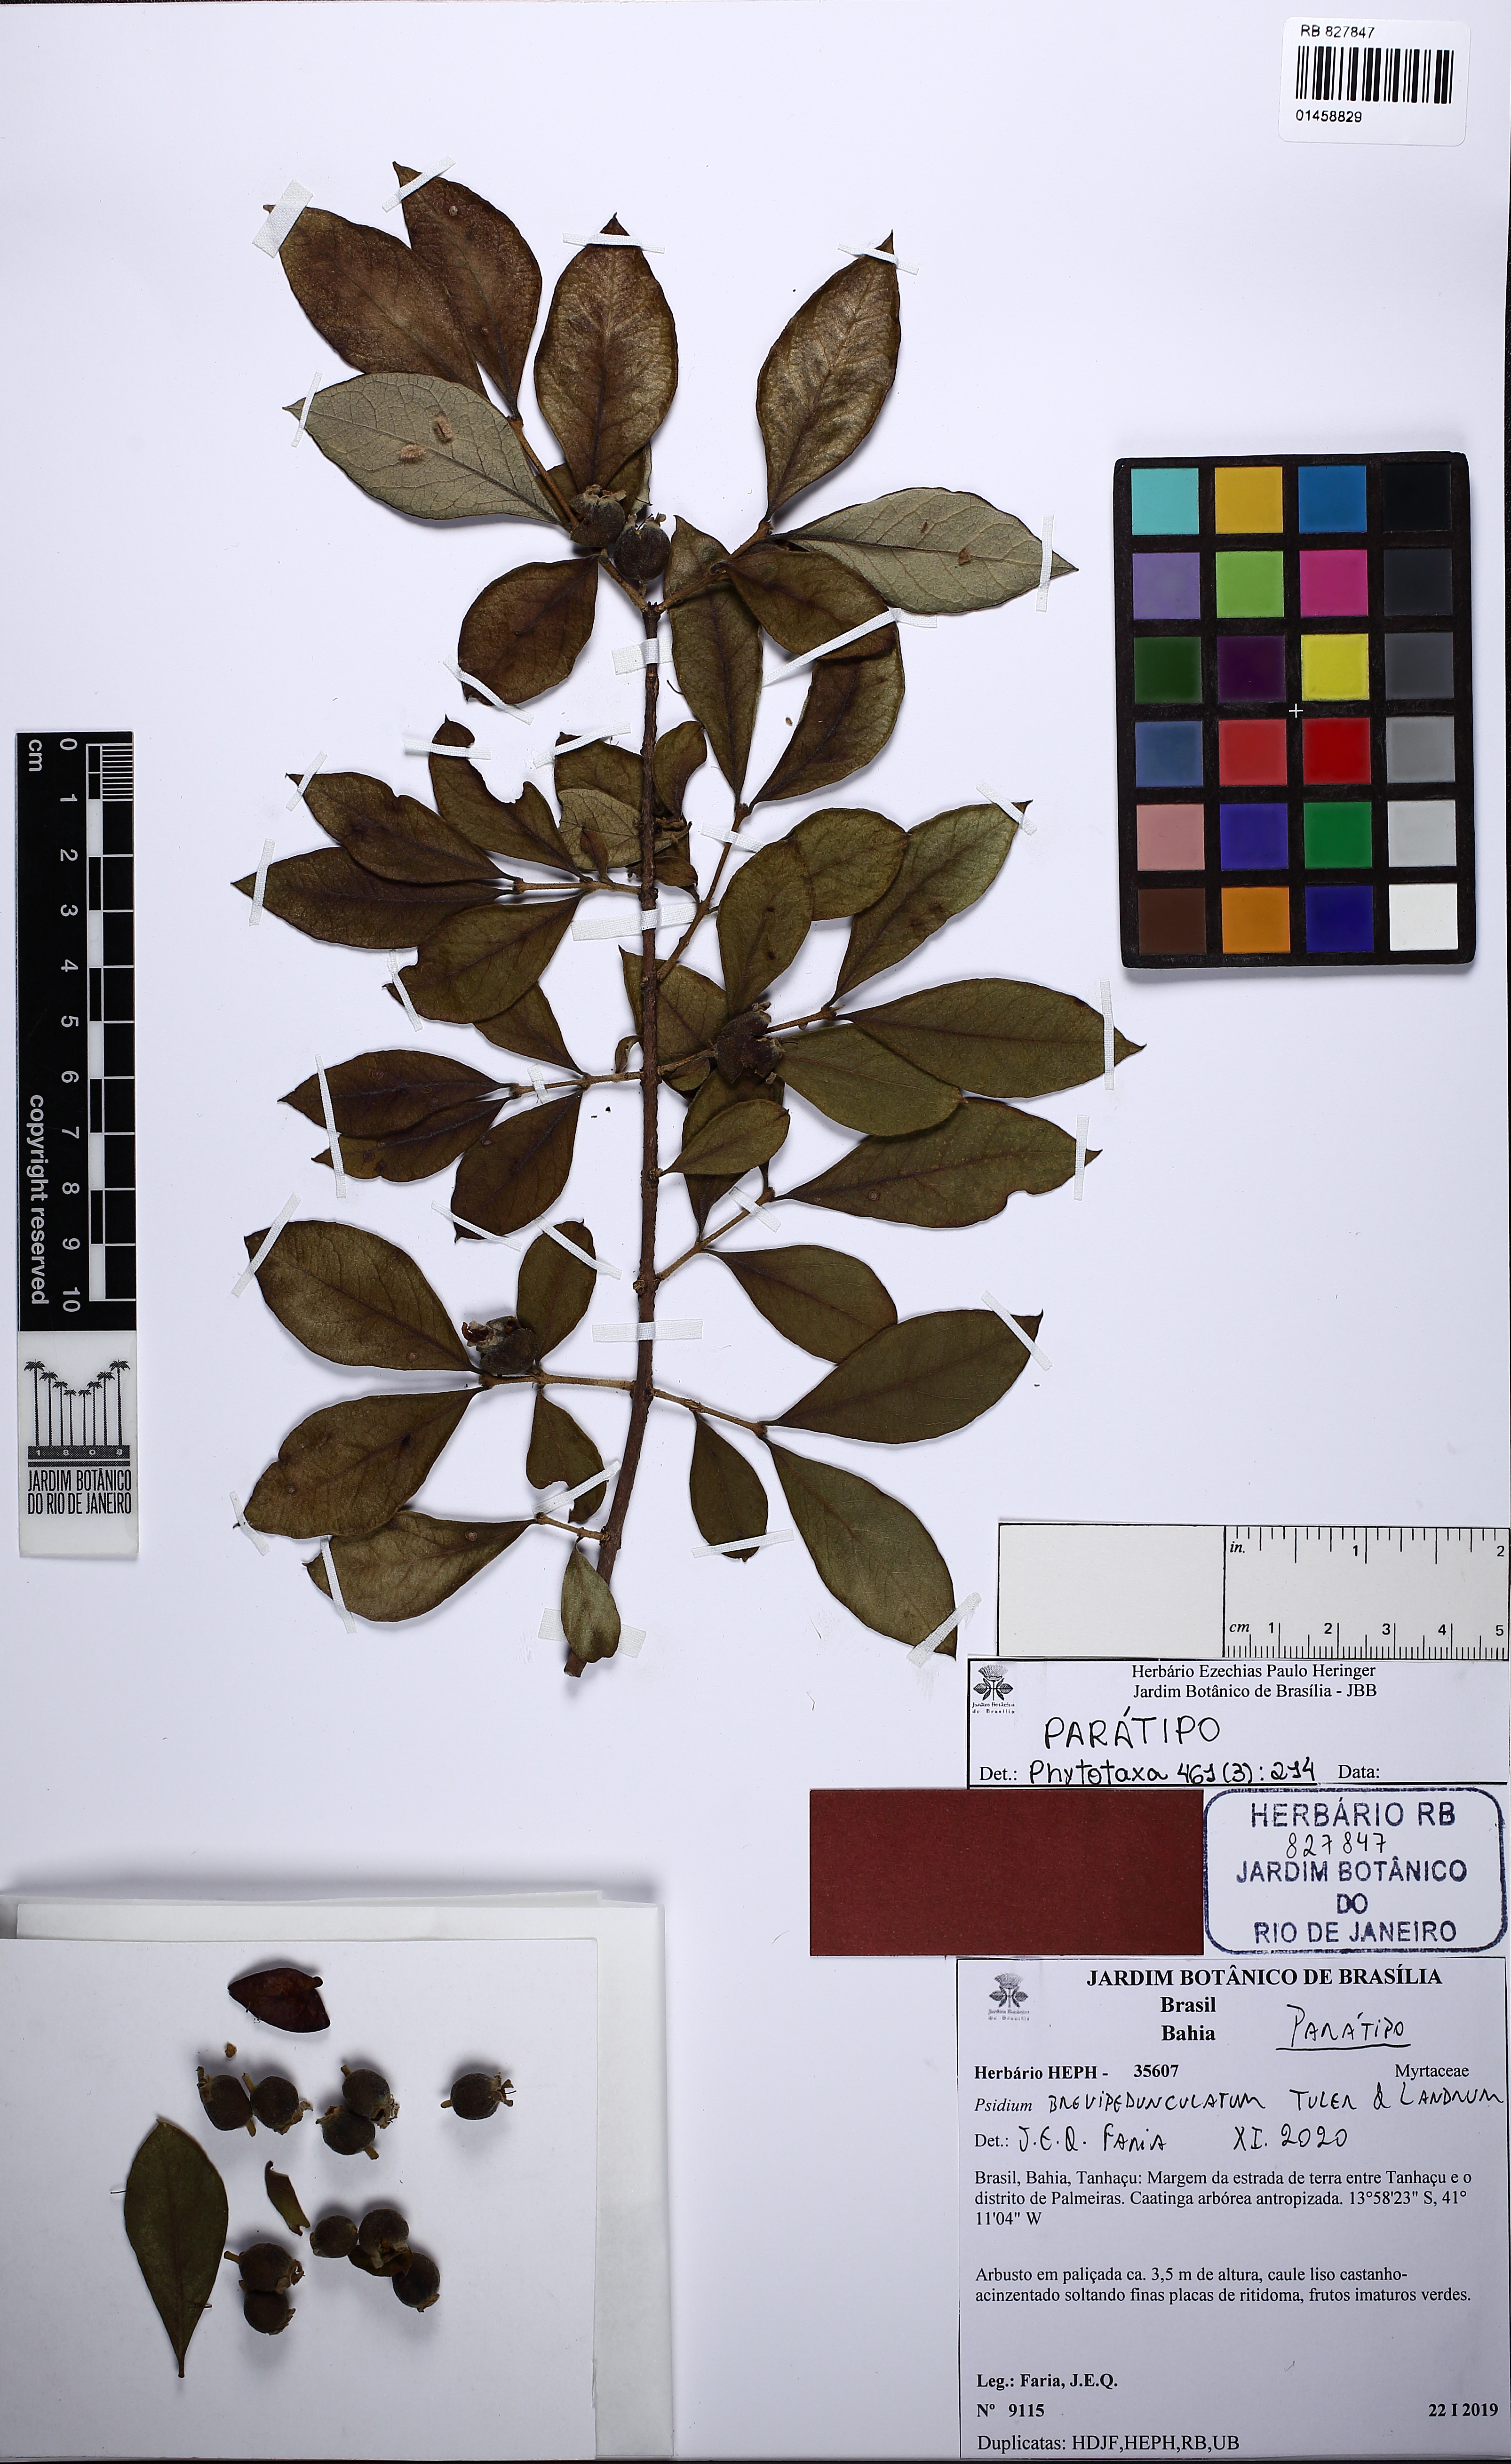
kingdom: Plantae
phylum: Tracheophyta
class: Magnoliopsida
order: Myrtales
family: Myrtaceae
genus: Psidium
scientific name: Psidium brevipedunculatum
